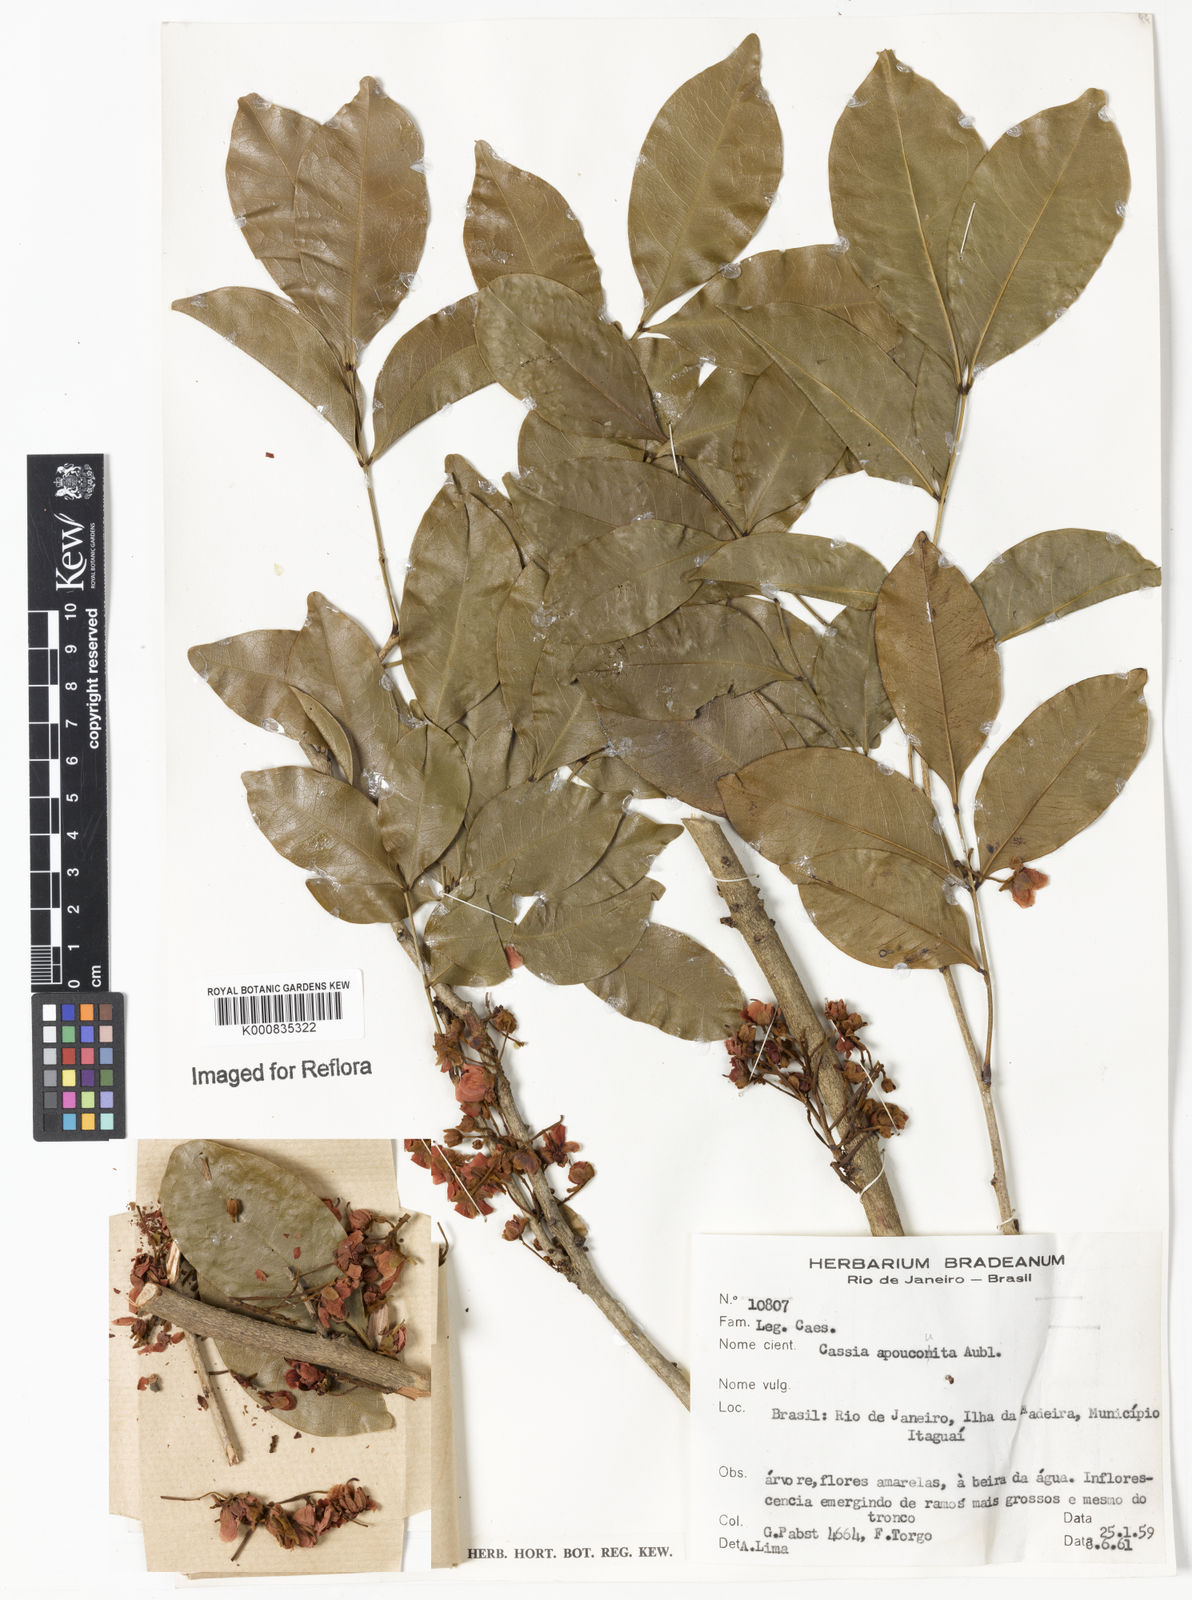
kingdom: Plantae
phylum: Tracheophyta
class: Magnoliopsida
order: Fabales
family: Fabaceae
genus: Chamaecrista
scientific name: Chamaecrista apoucouita
